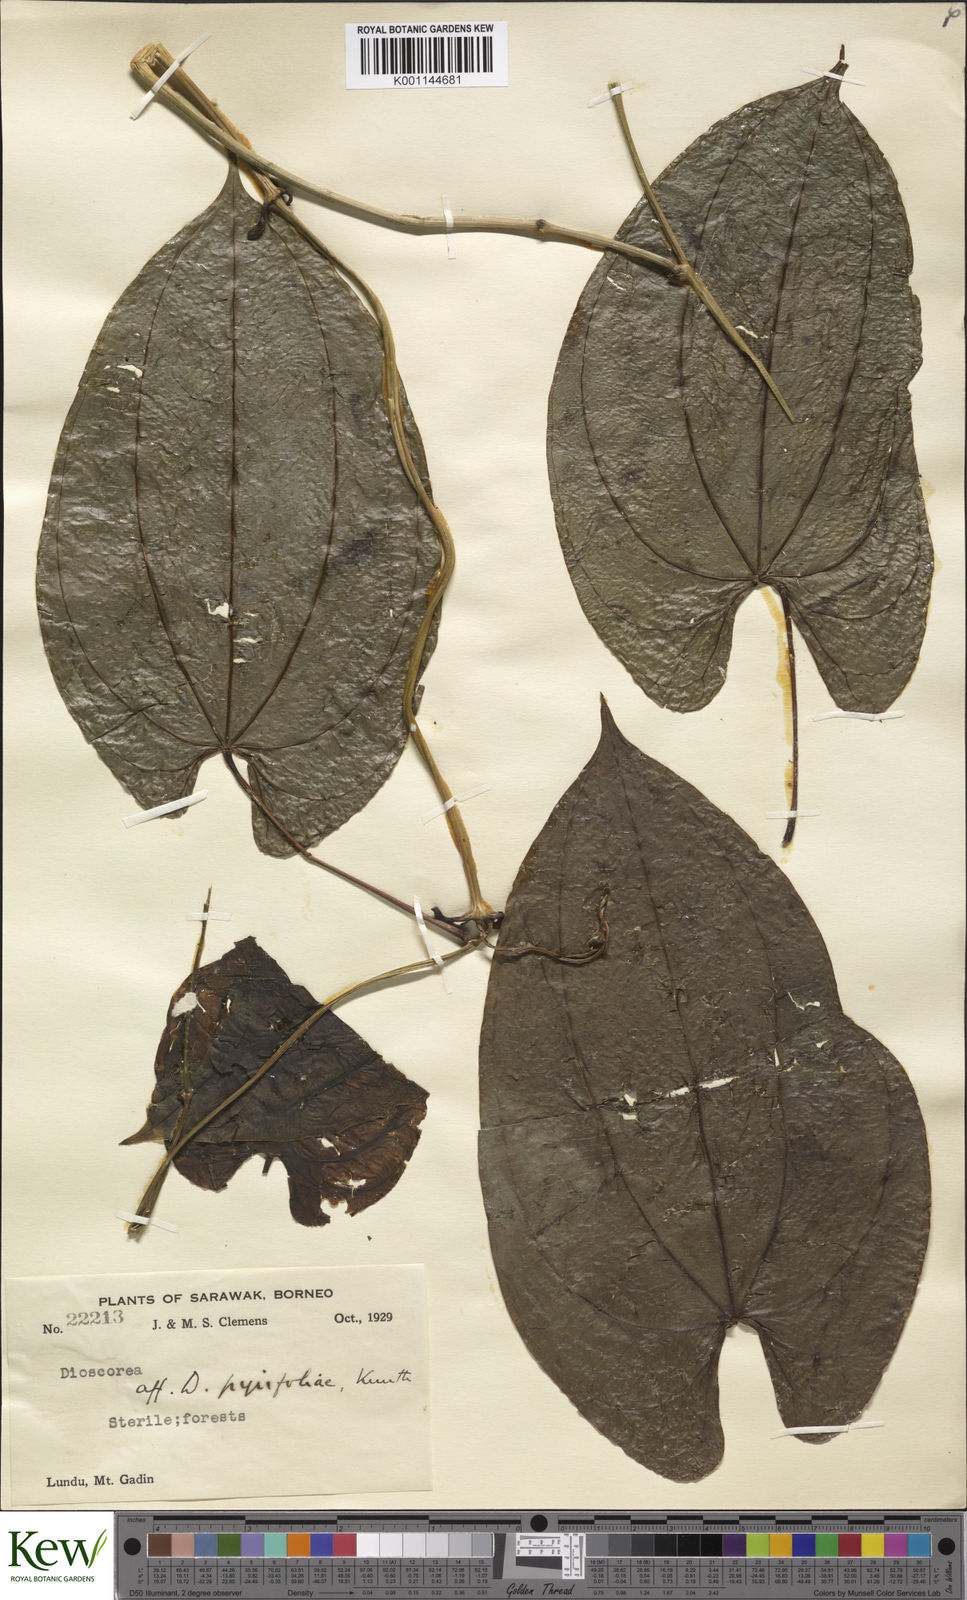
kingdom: Plantae
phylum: Tracheophyta
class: Liliopsida
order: Dioscoreales
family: Dioscoreaceae
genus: Dioscorea
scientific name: Dioscorea
